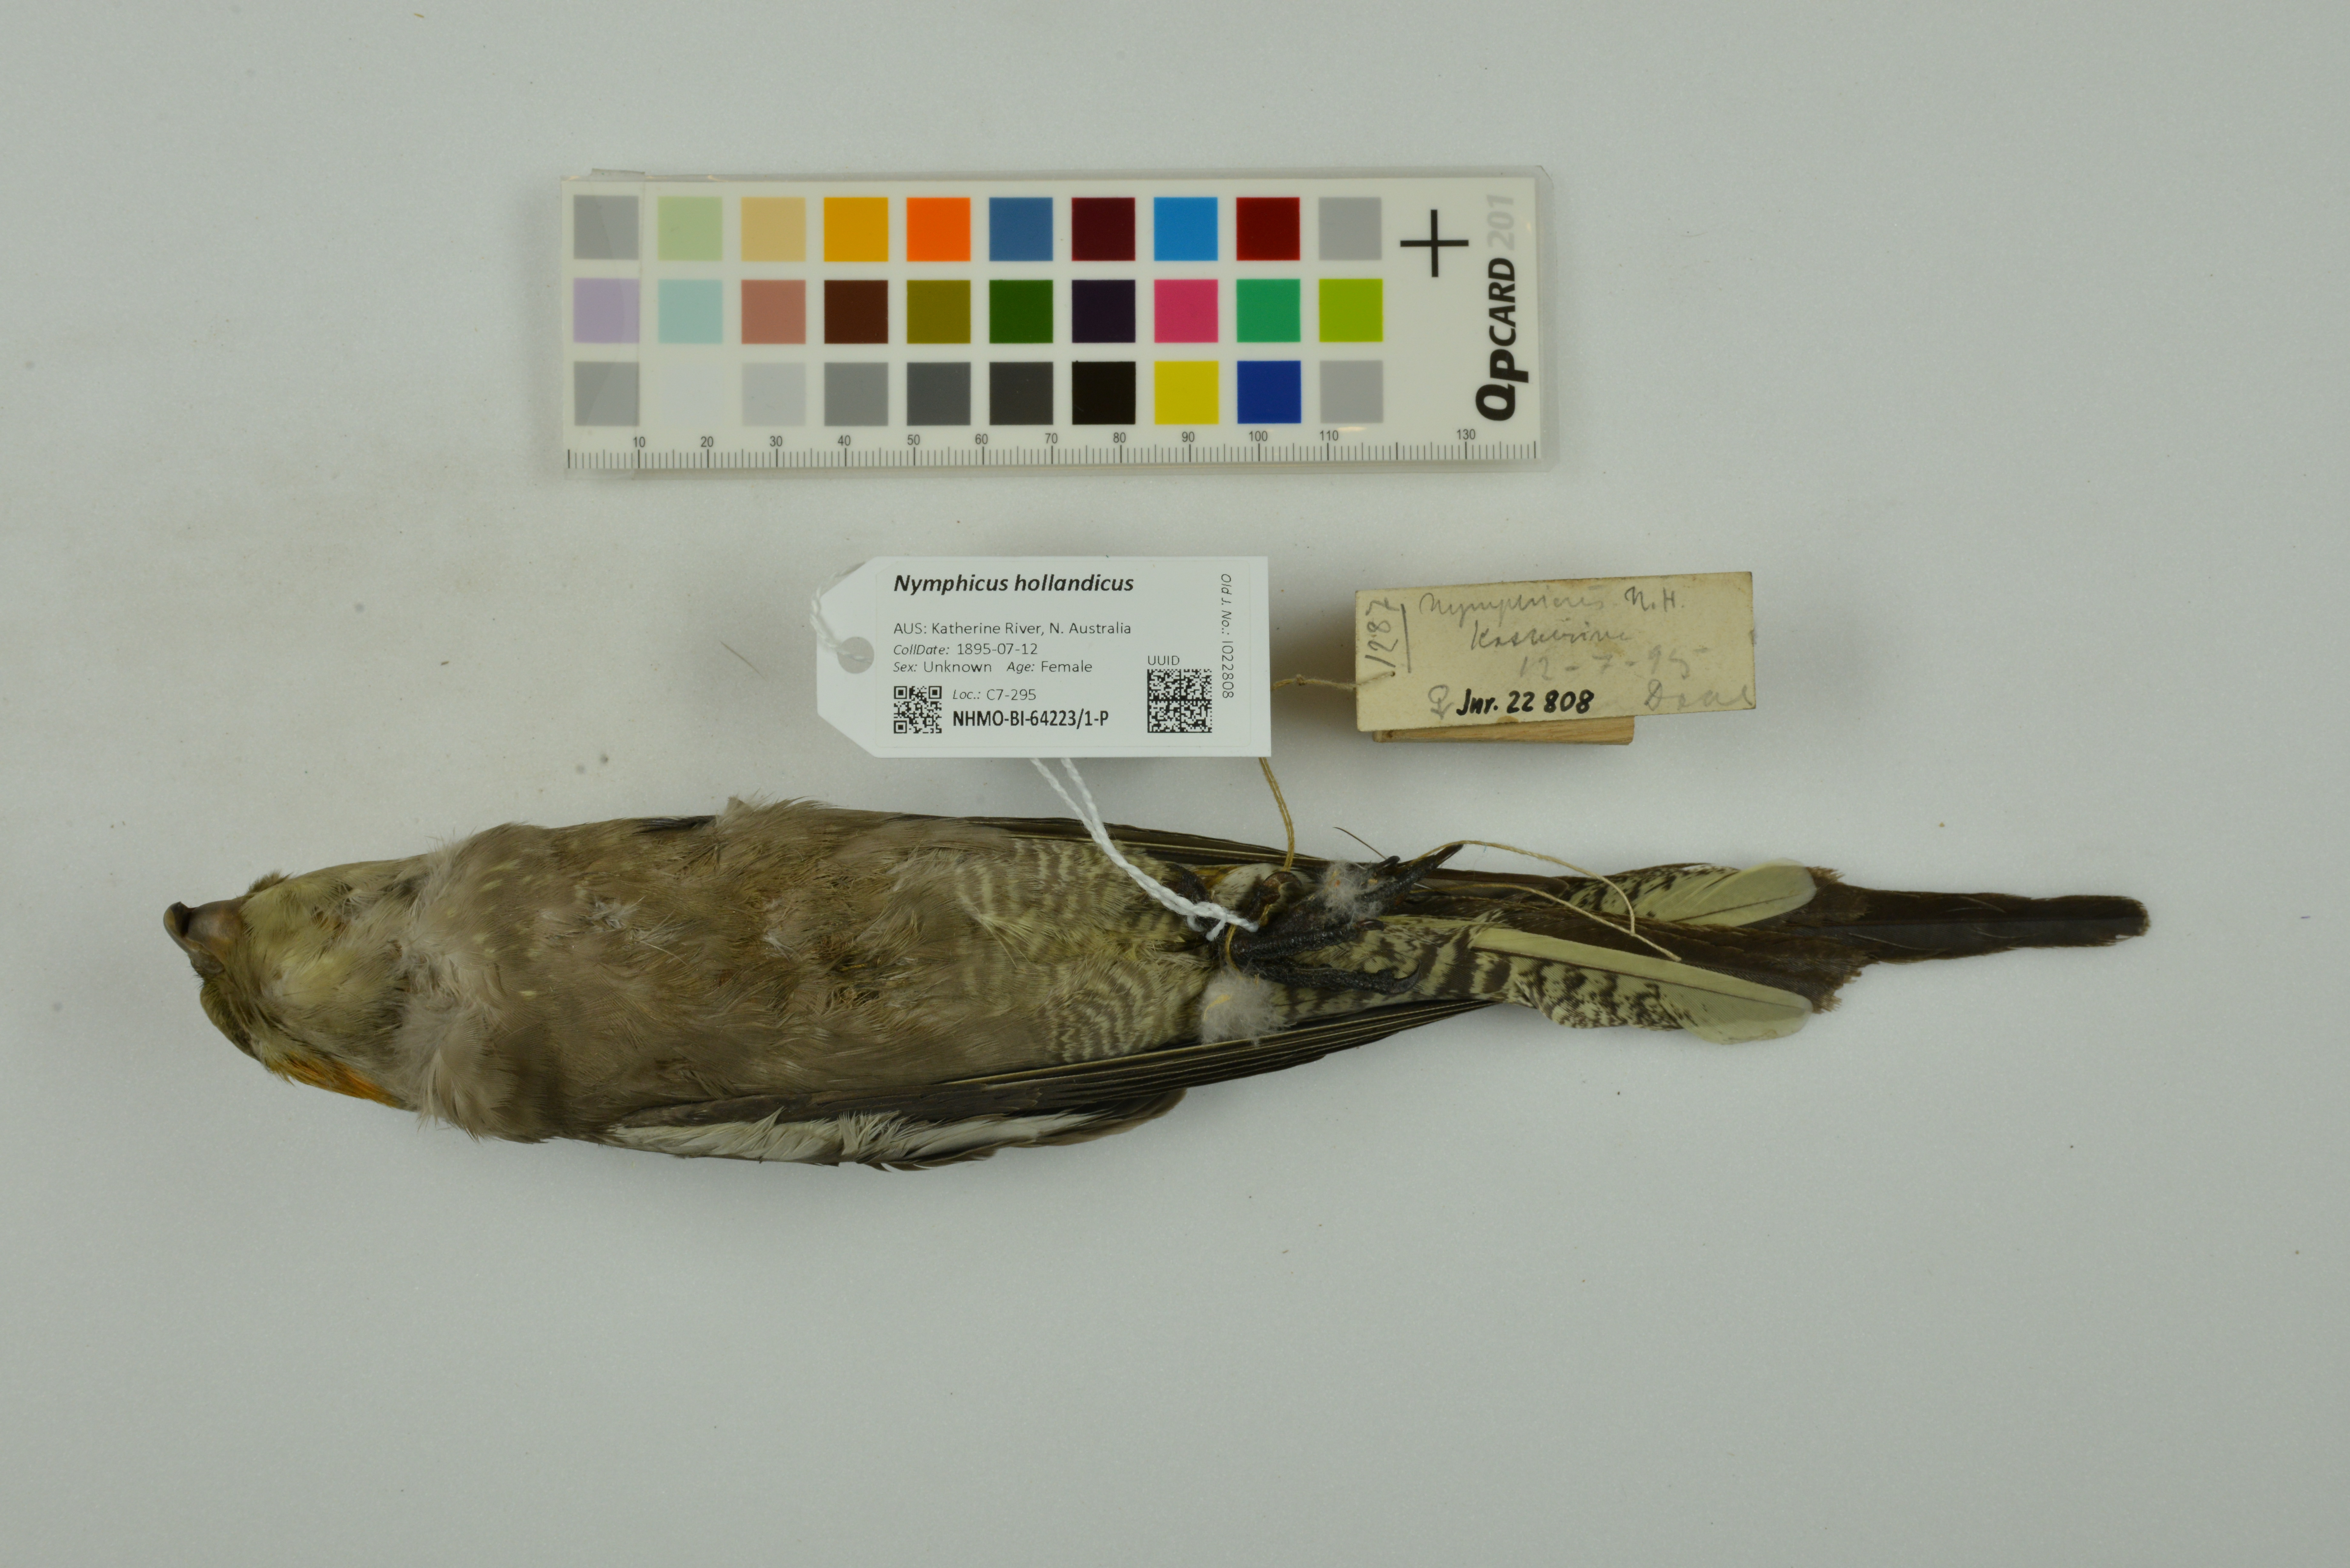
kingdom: Animalia
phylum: Chordata
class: Aves
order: Psittaciformes
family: Psittacidae
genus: Nymphicus
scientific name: Nymphicus hollandicus
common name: Cockatiel
